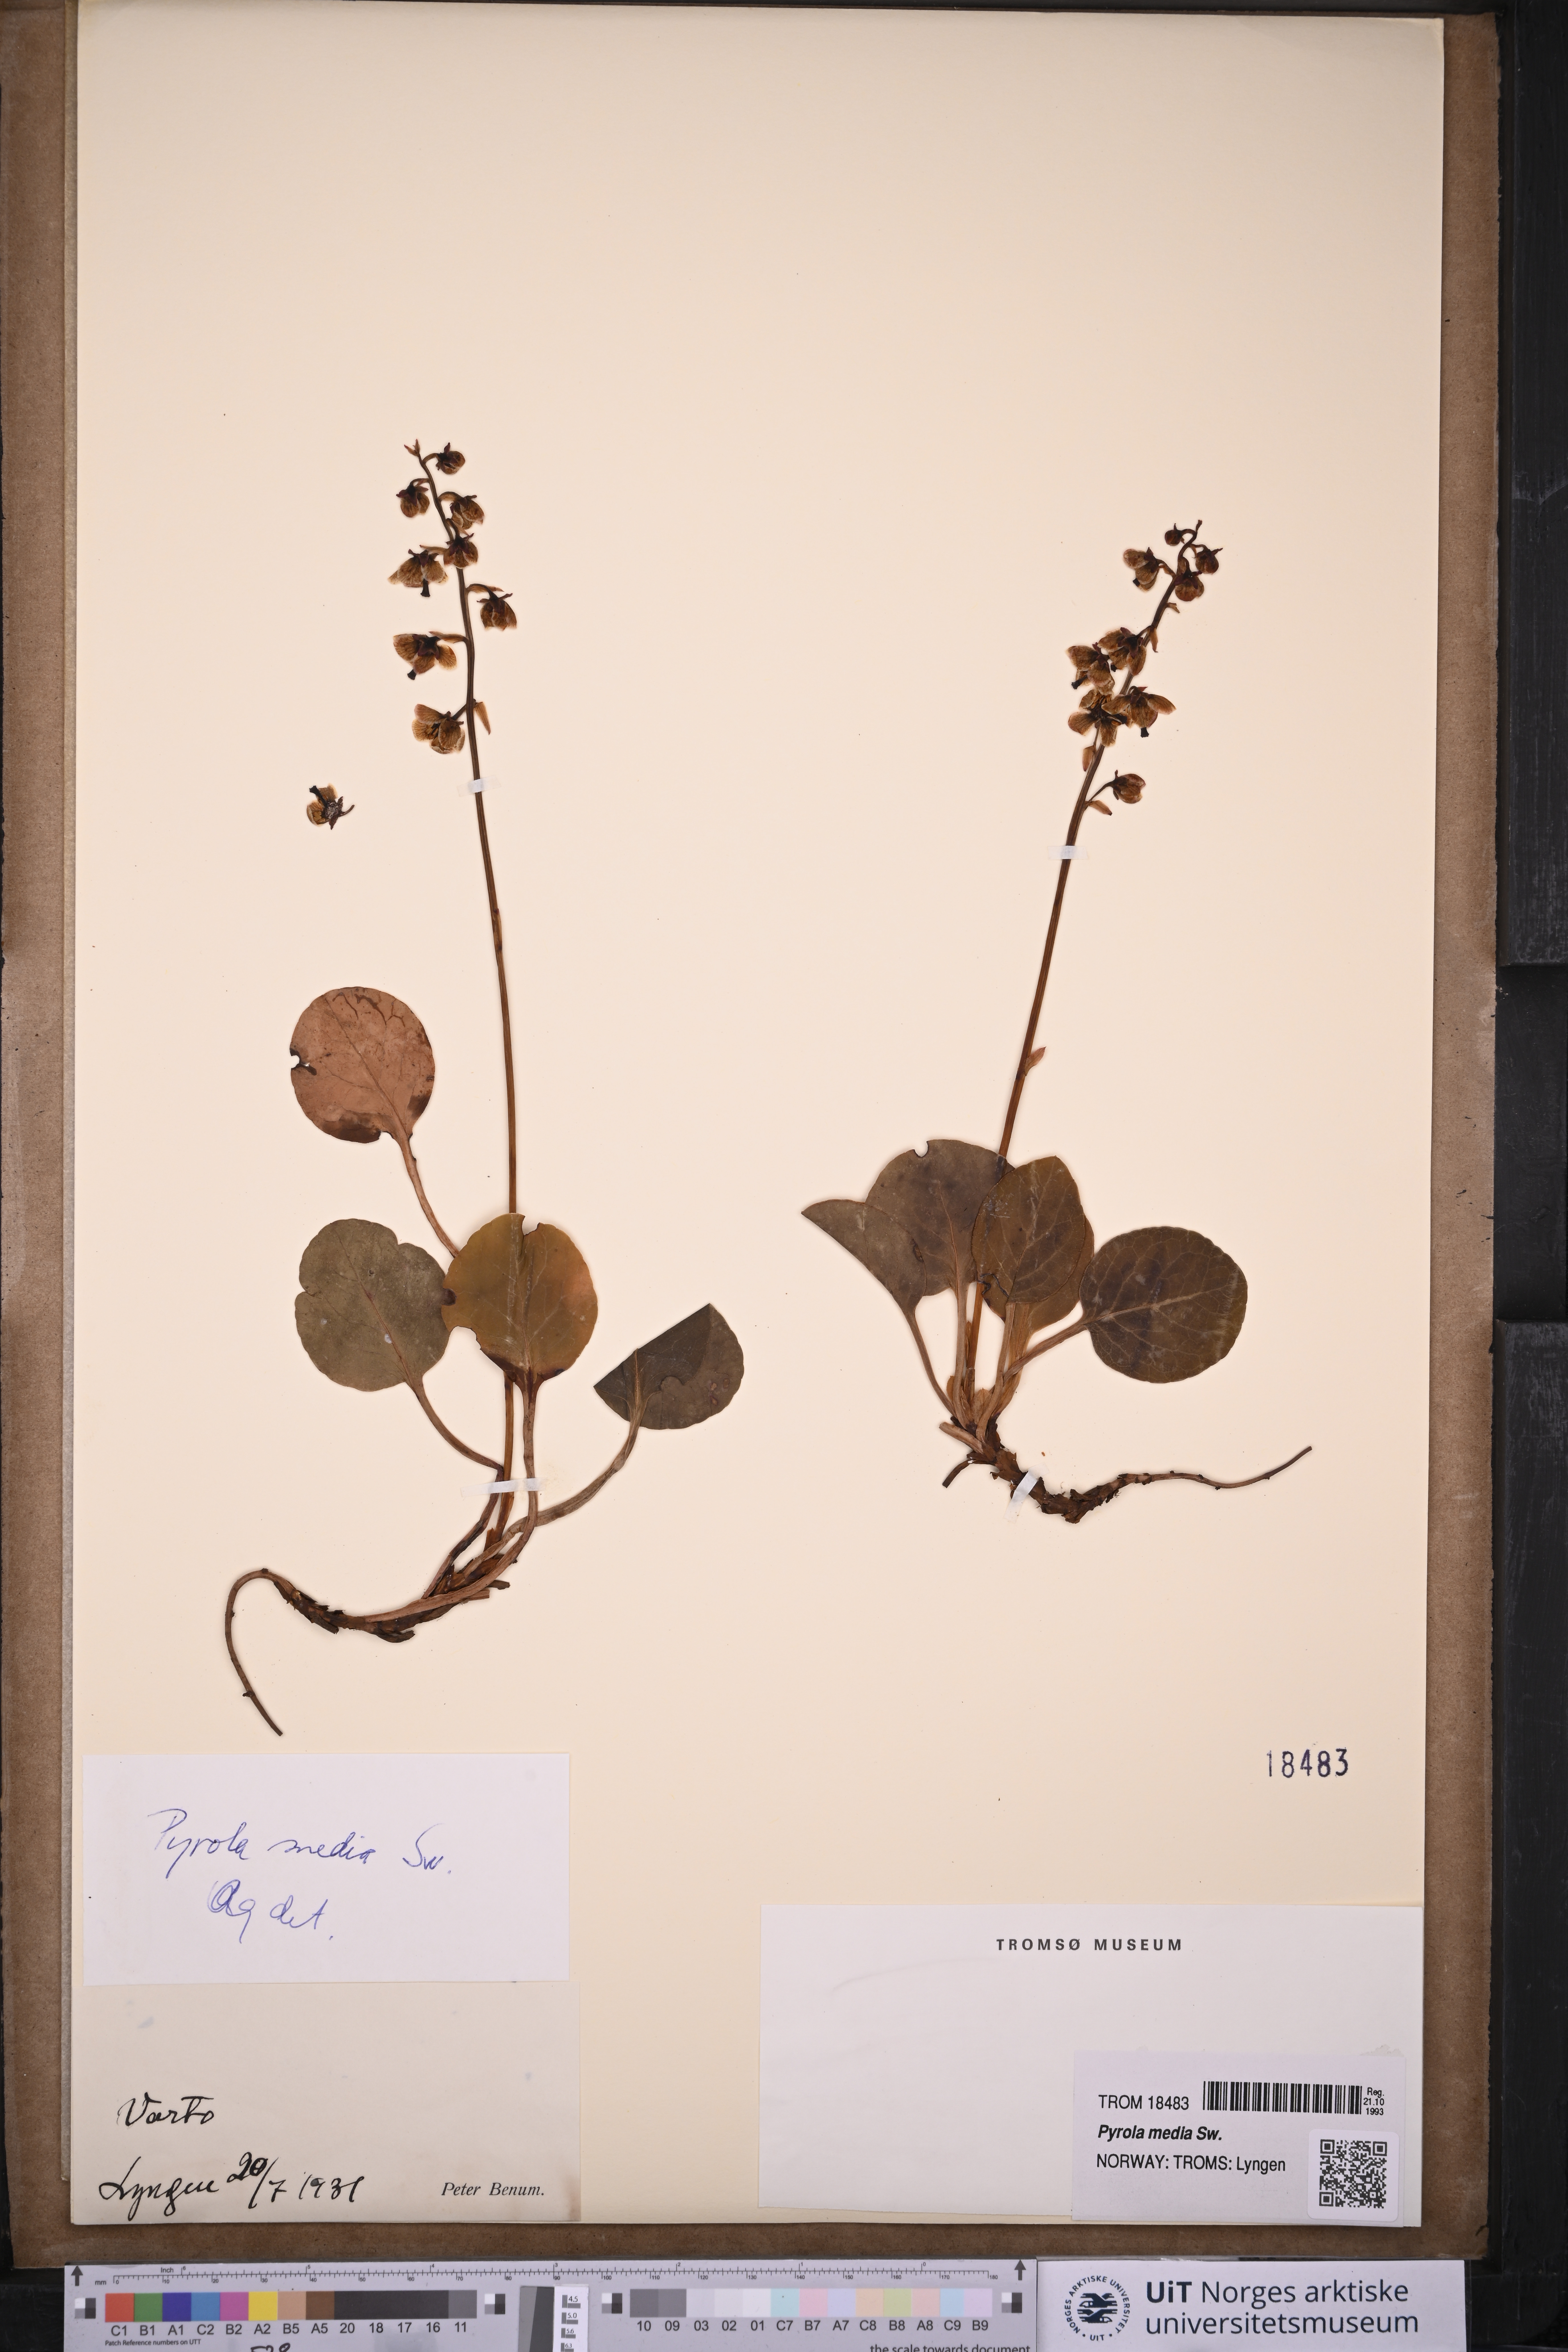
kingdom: Plantae
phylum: Tracheophyta
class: Magnoliopsida
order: Ericales
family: Ericaceae
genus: Pyrola
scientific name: Pyrola media
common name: Intermediate wintergreen
